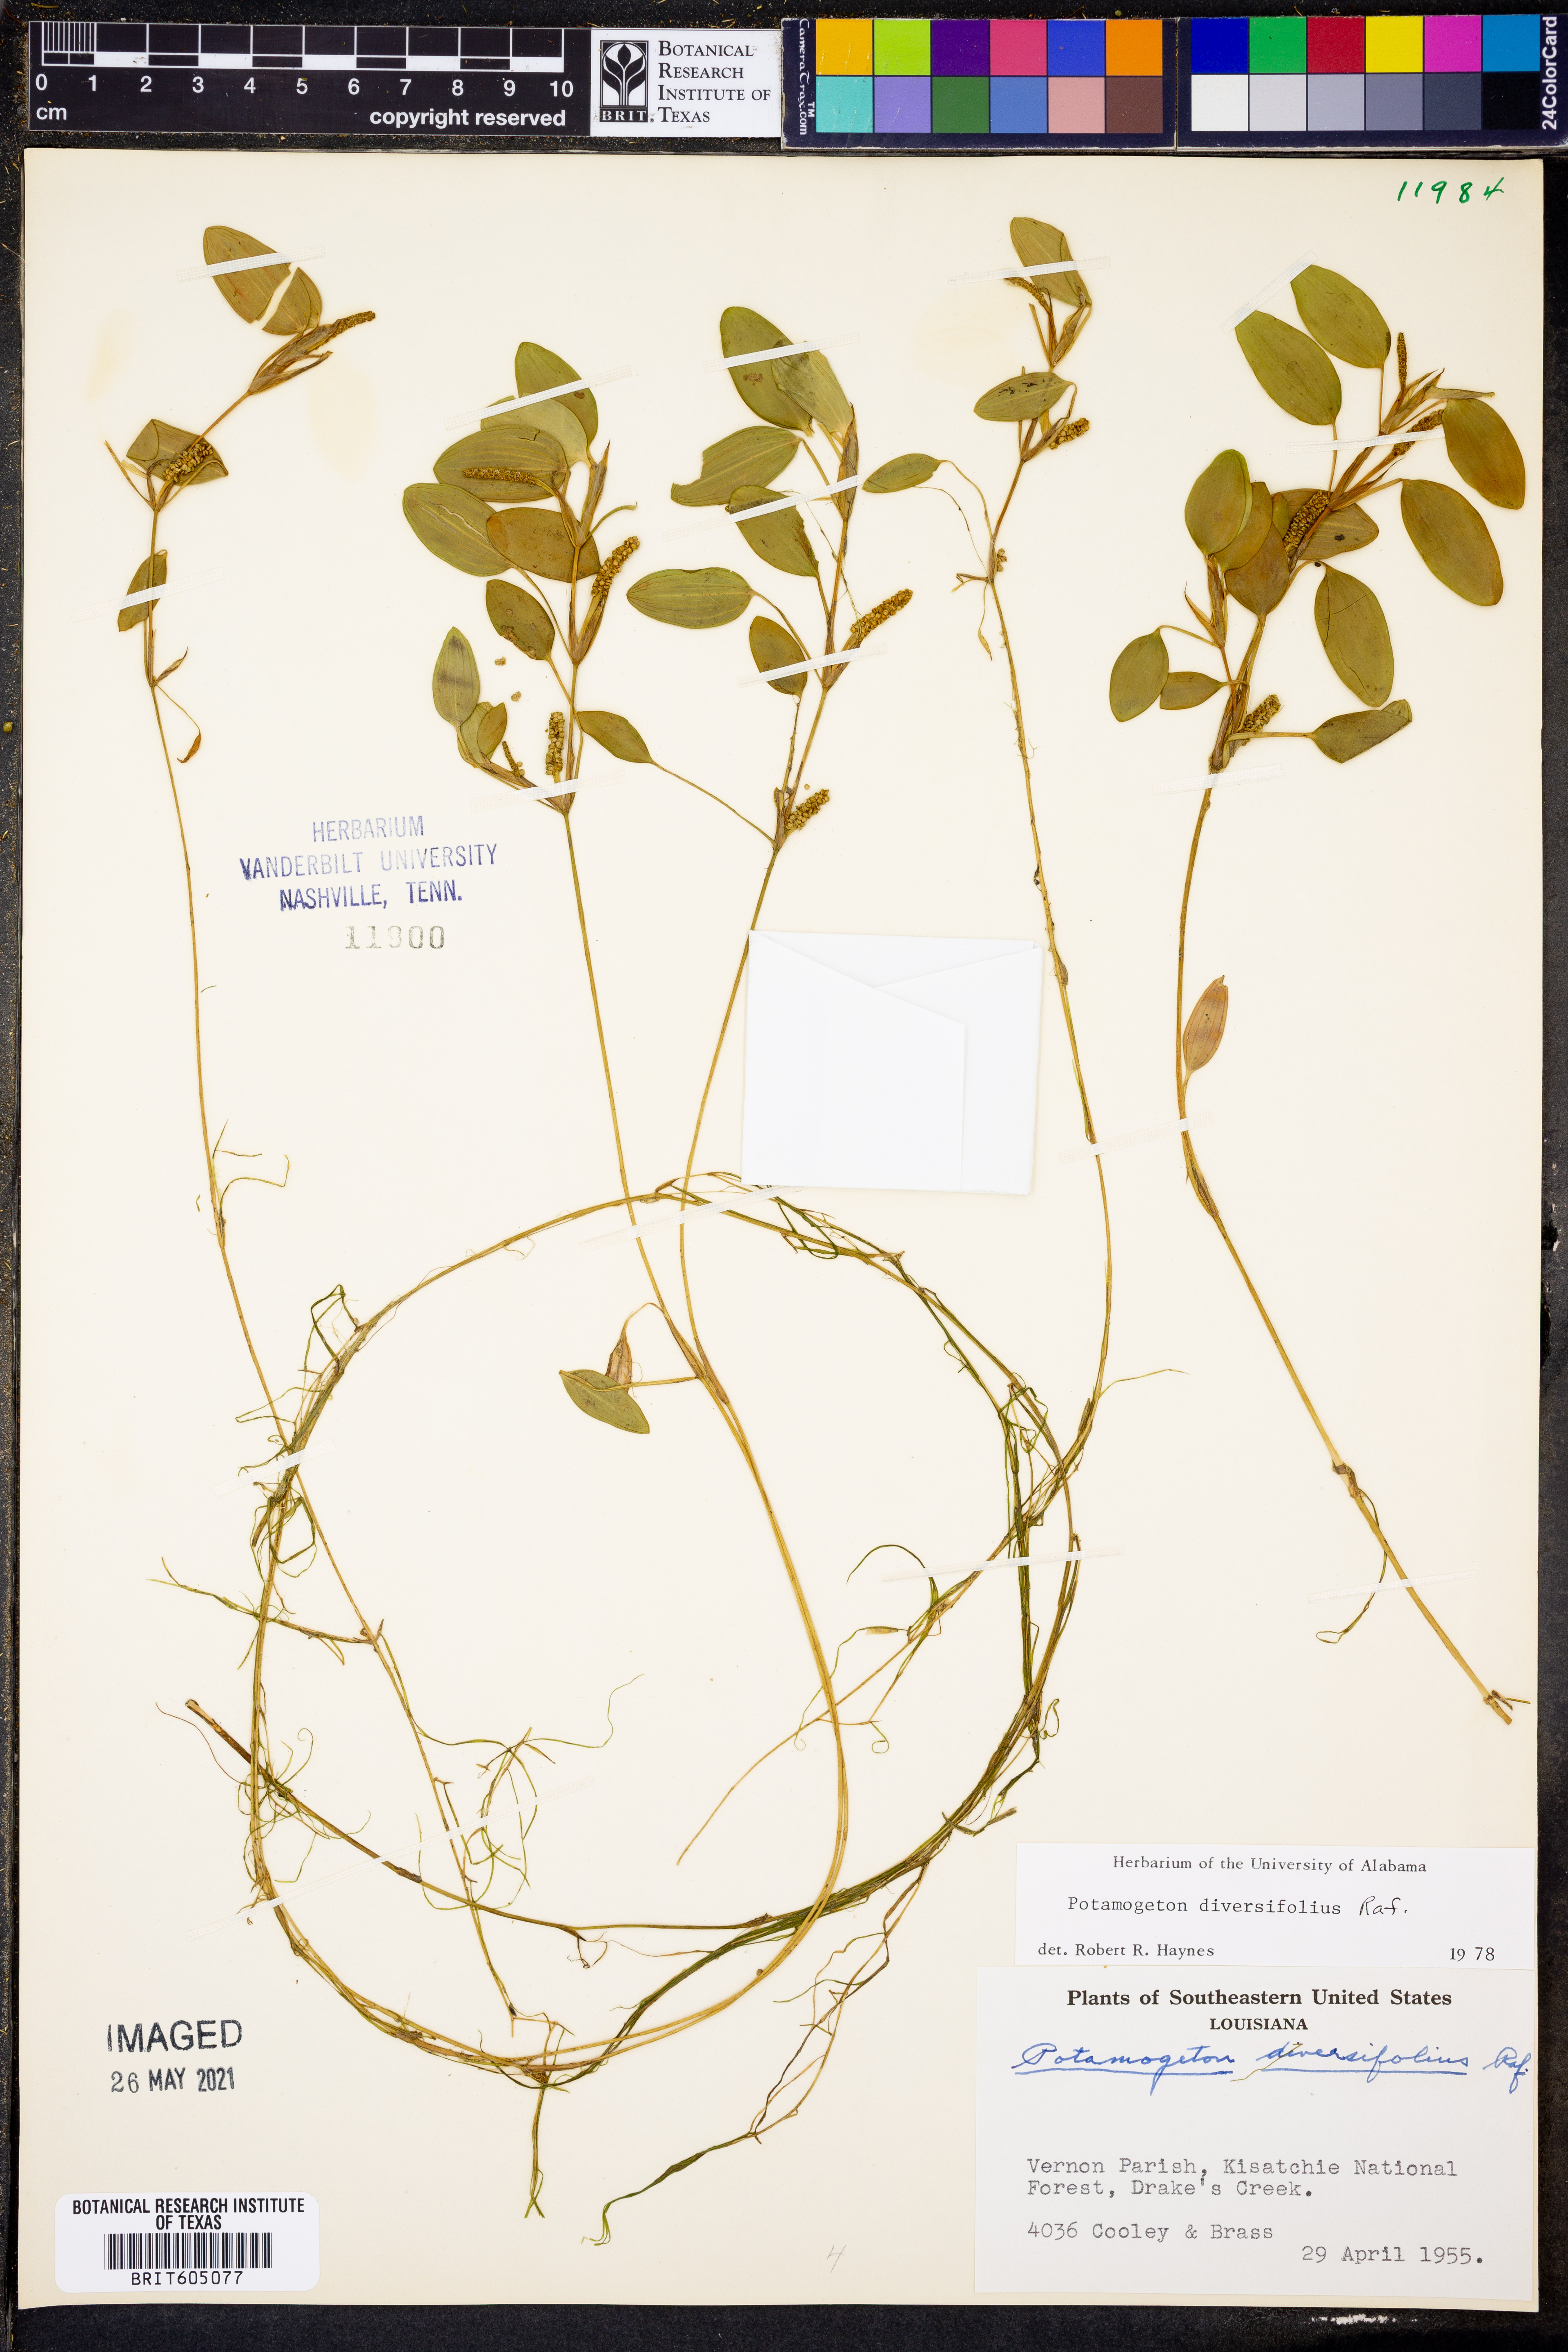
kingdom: Plantae
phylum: Tracheophyta
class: Liliopsida
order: Alismatales
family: Potamogetonaceae
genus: Potamogeton
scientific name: Potamogeton diversifolius
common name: Water-thread pondweed
